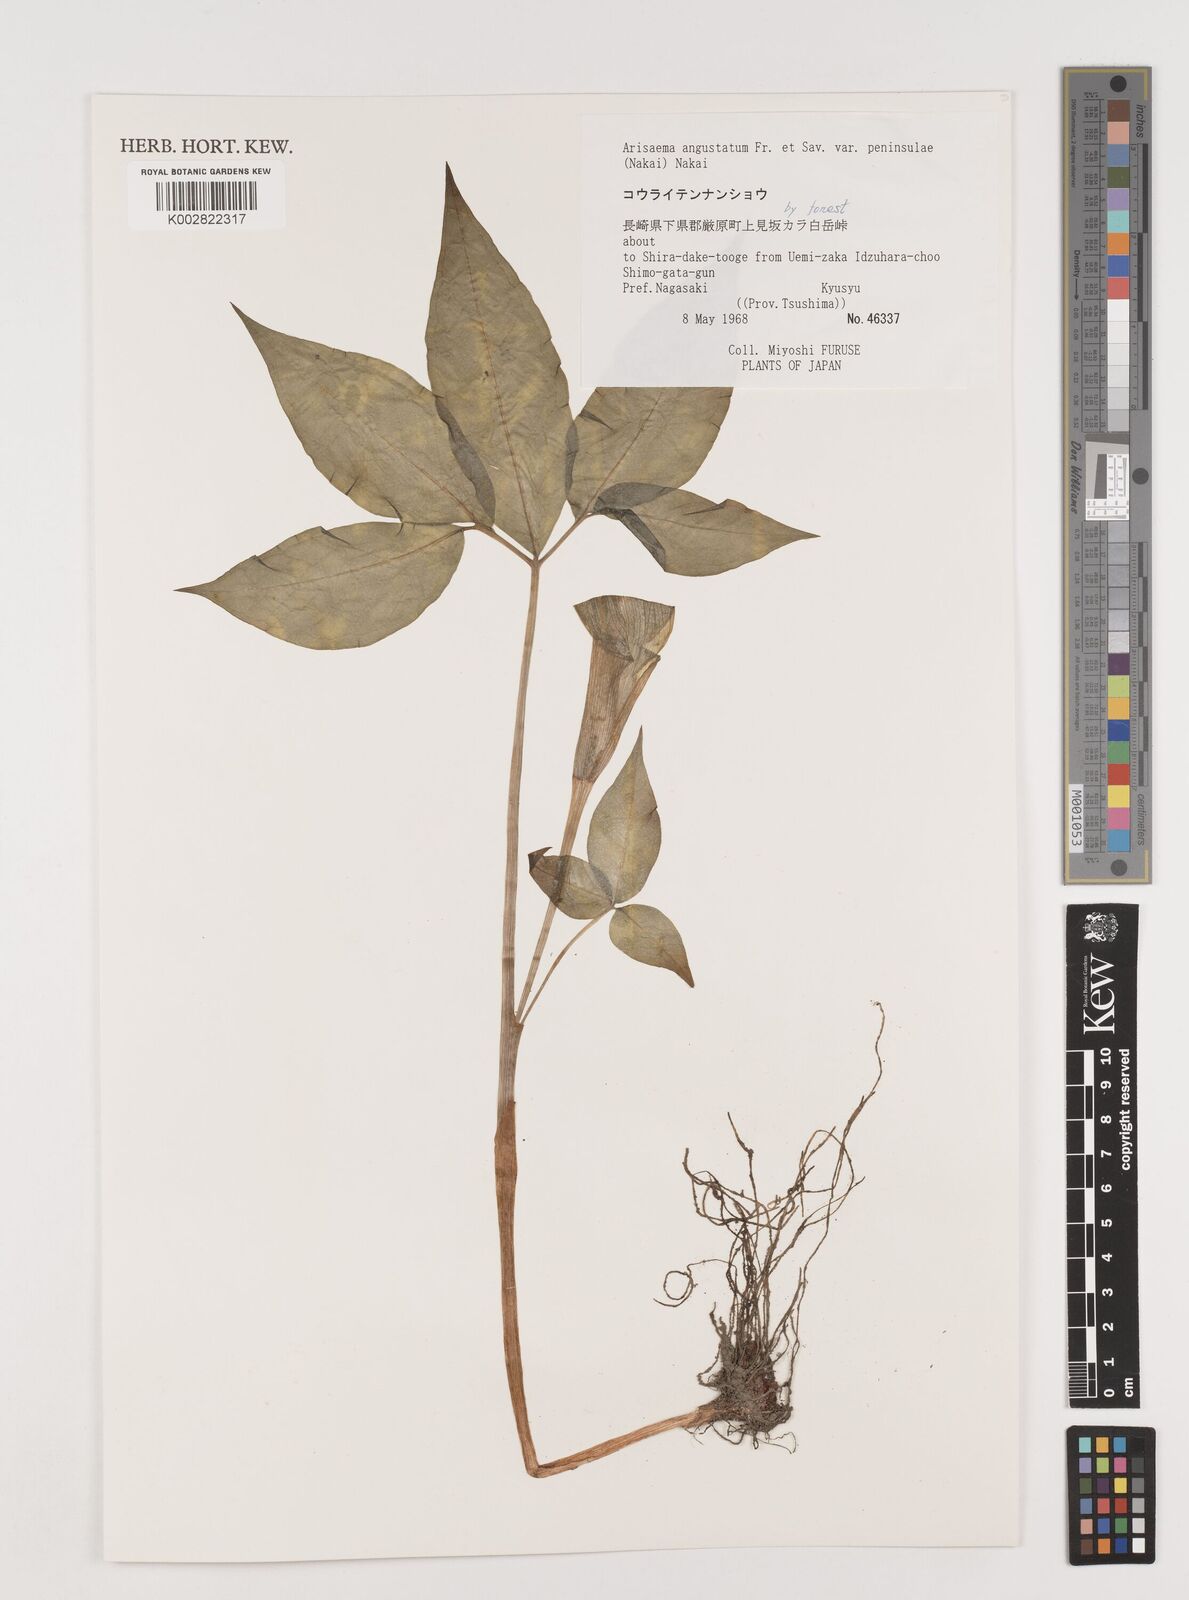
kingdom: Plantae
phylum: Tracheophyta
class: Liliopsida
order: Alismatales
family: Araceae
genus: Arisaema
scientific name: Arisaema angustatum
